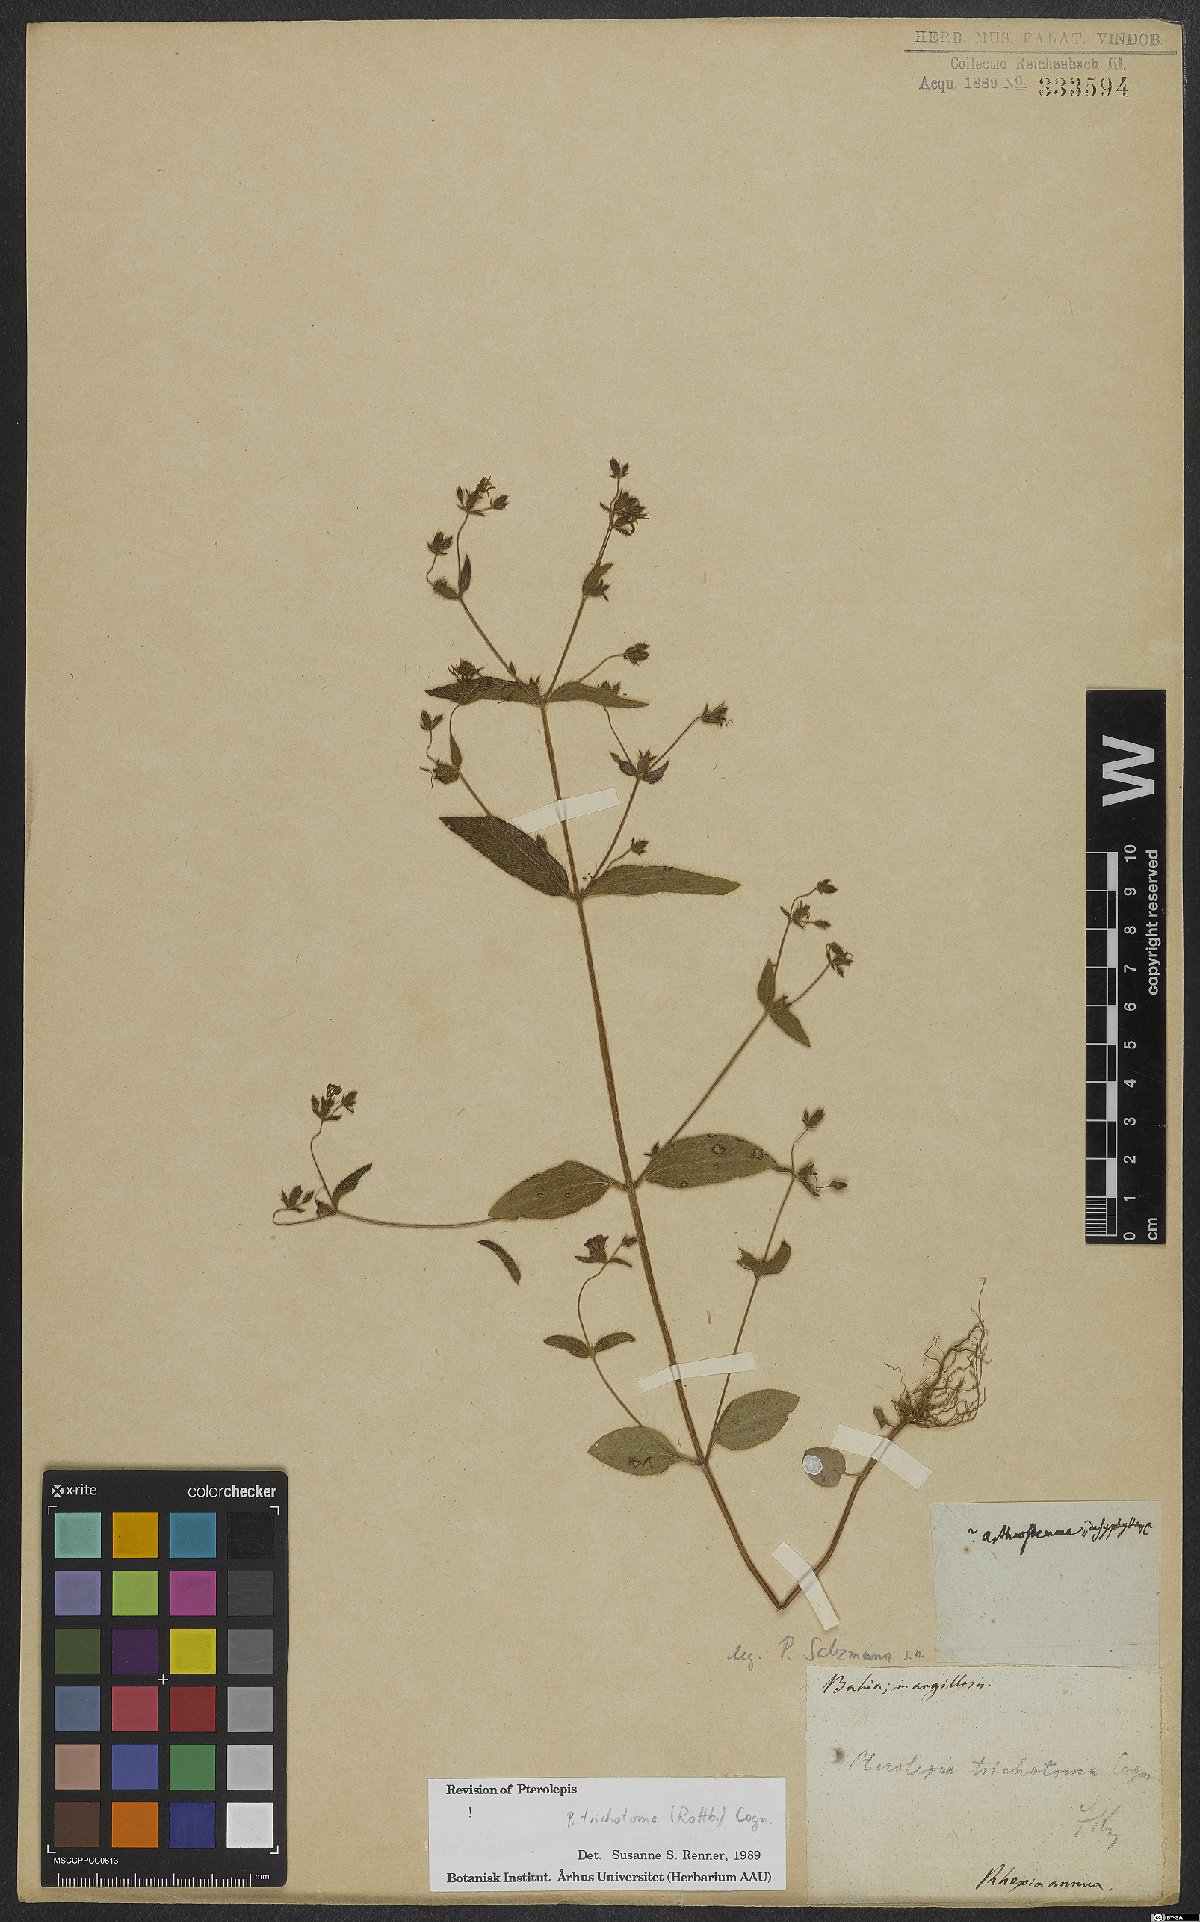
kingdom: Plantae
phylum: Tracheophyta
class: Magnoliopsida
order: Myrtales
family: Melastomataceae
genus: Pterolepis
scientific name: Pterolepis trichotoma
